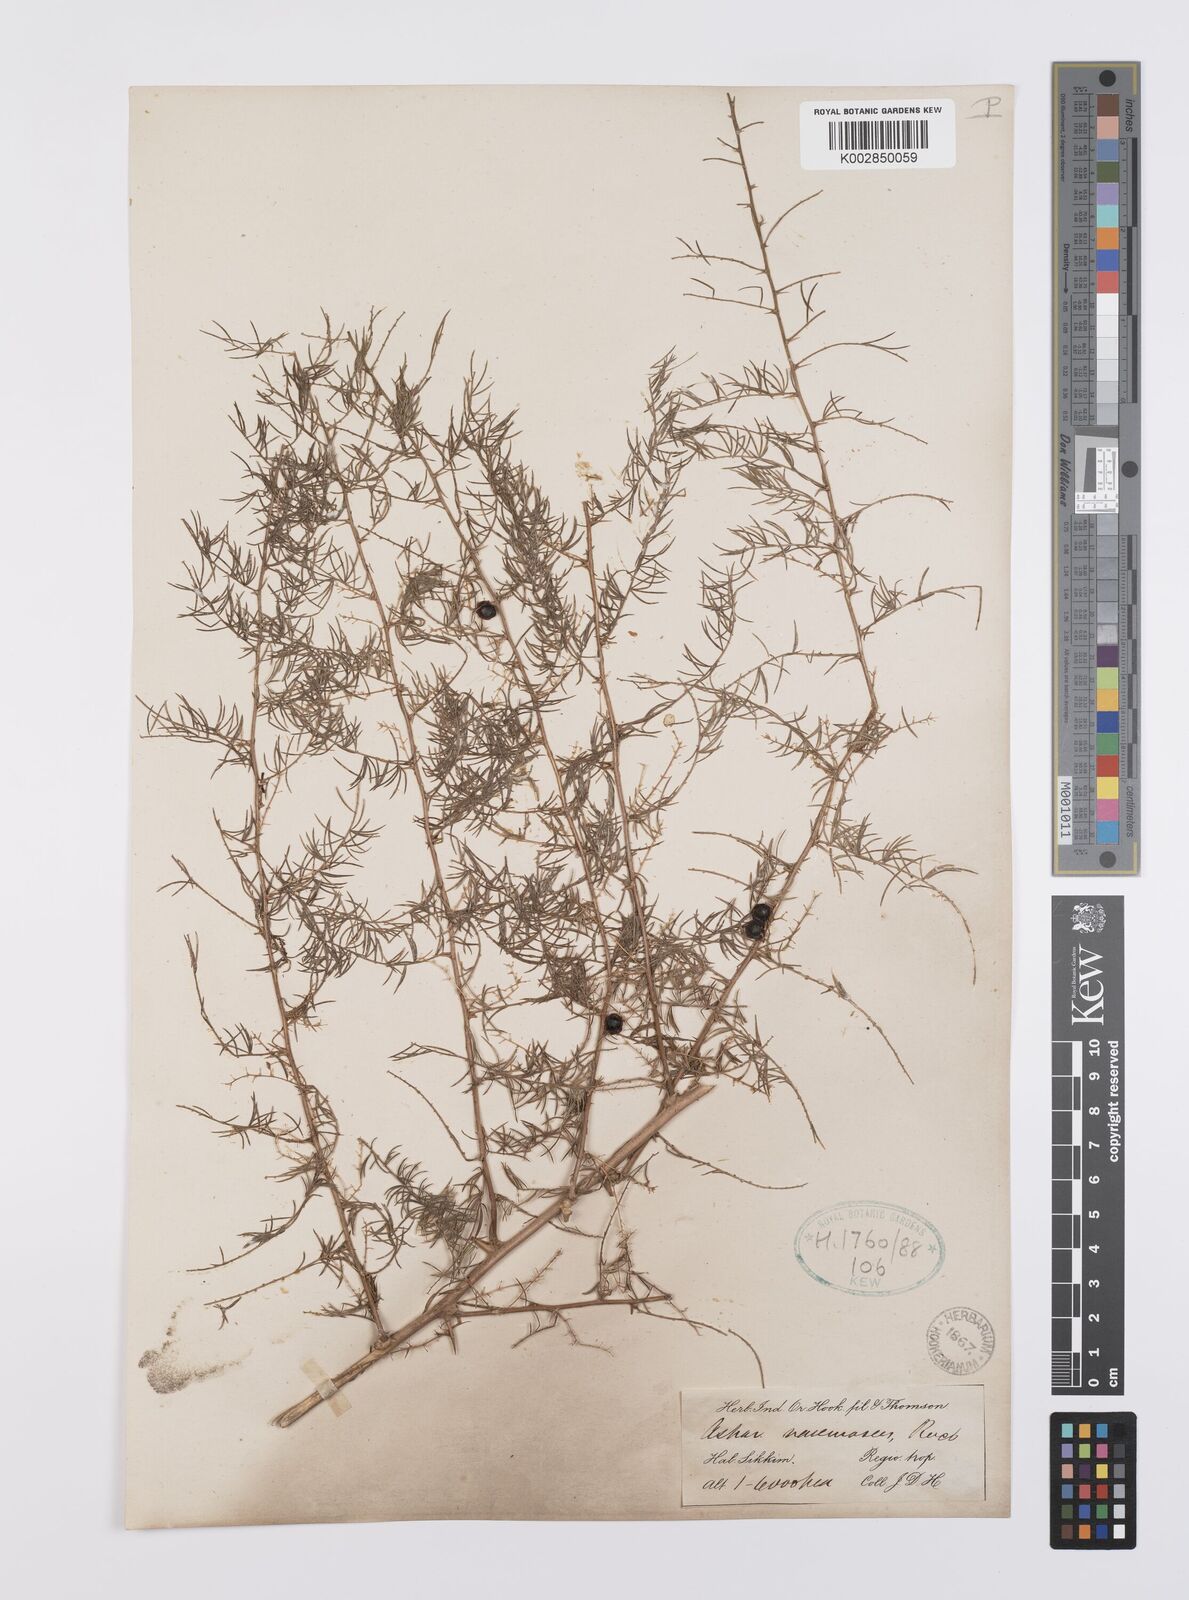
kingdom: Plantae
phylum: Tracheophyta
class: Liliopsida
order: Asparagales
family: Asparagaceae
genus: Asparagus
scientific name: Asparagus racemosus
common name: Asparagus-fern
